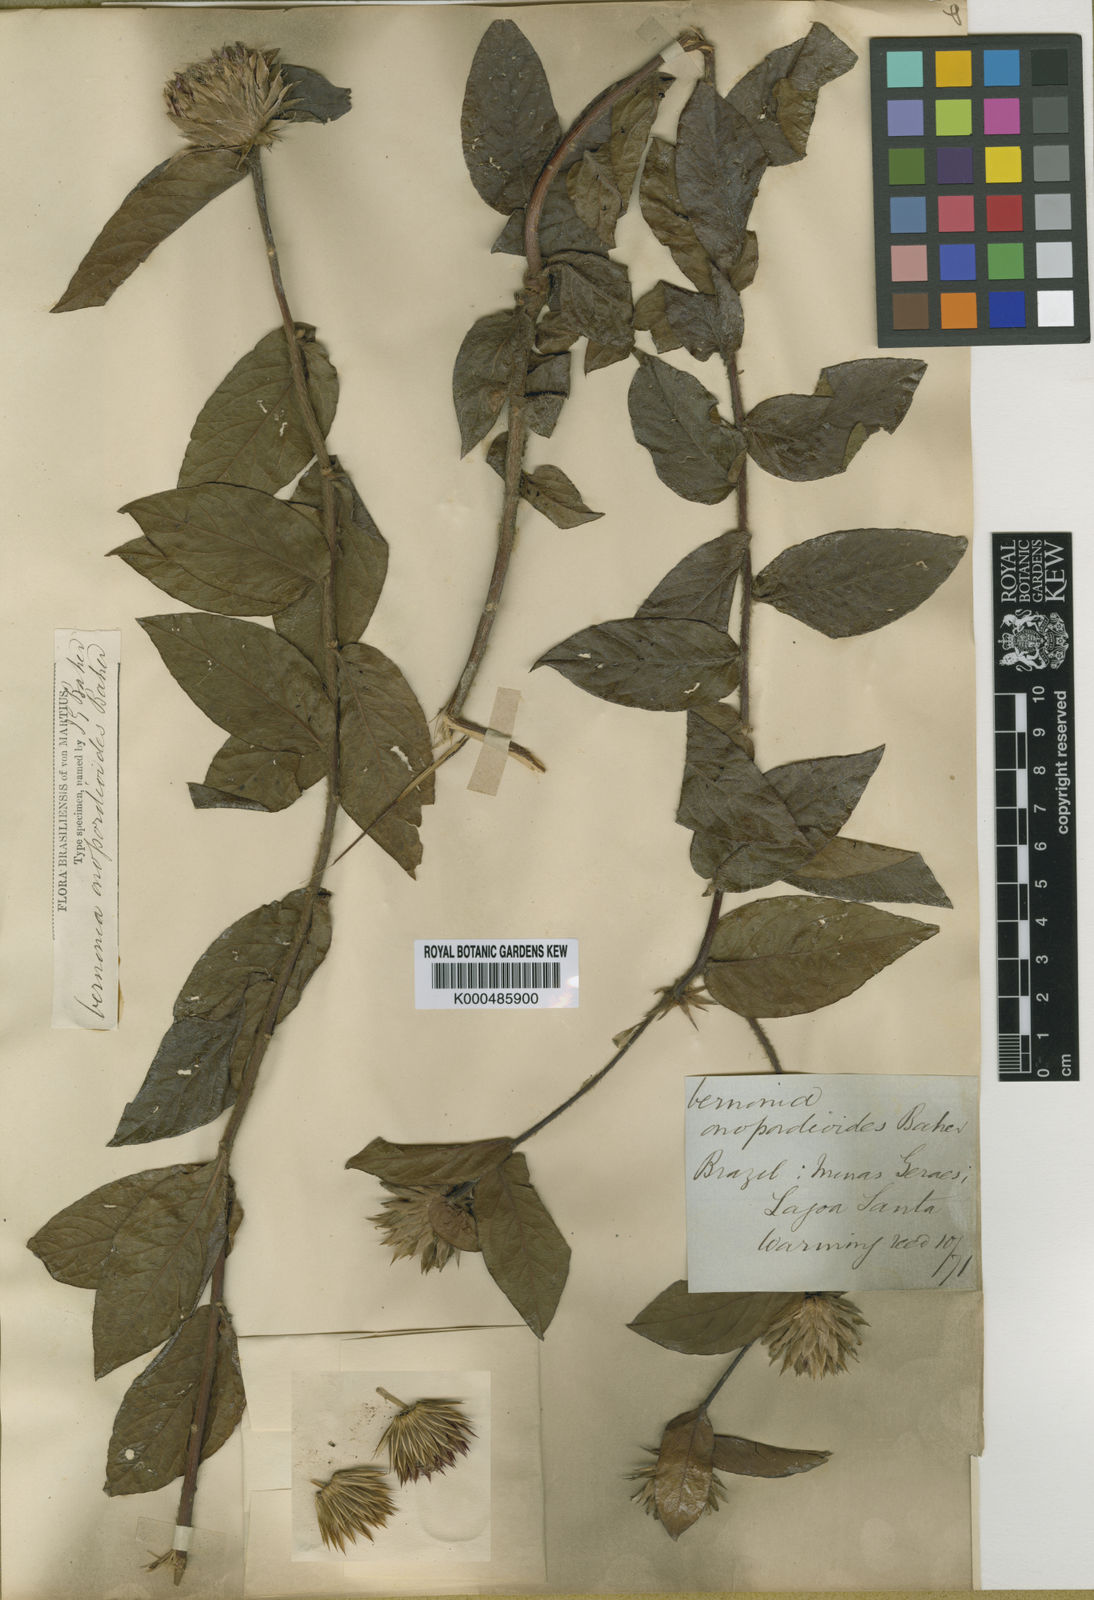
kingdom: Plantae
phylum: Tracheophyta
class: Magnoliopsida
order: Asterales
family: Asteraceae
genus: Vernonia
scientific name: Vernonia
